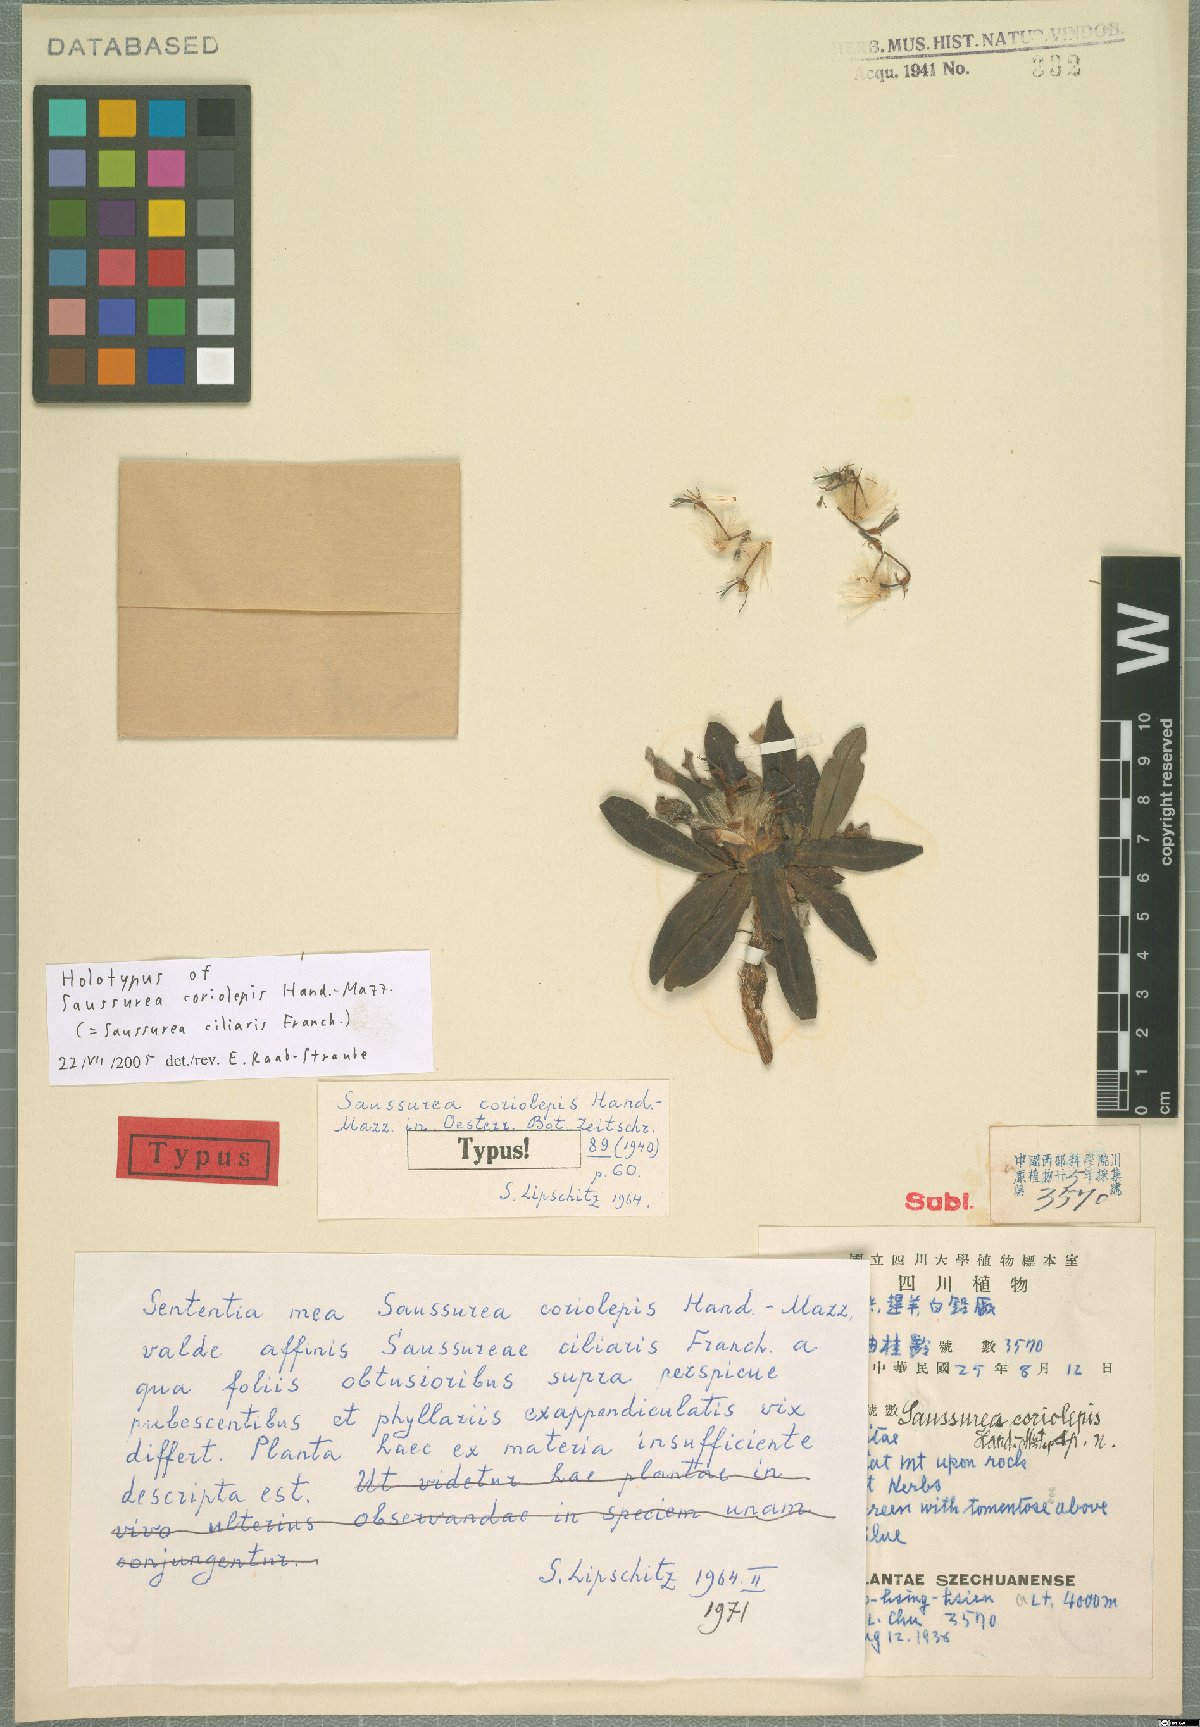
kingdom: Plantae
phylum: Tracheophyta
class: Magnoliopsida
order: Asterales
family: Asteraceae
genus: Saussurea
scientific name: Saussurea ciliaris
